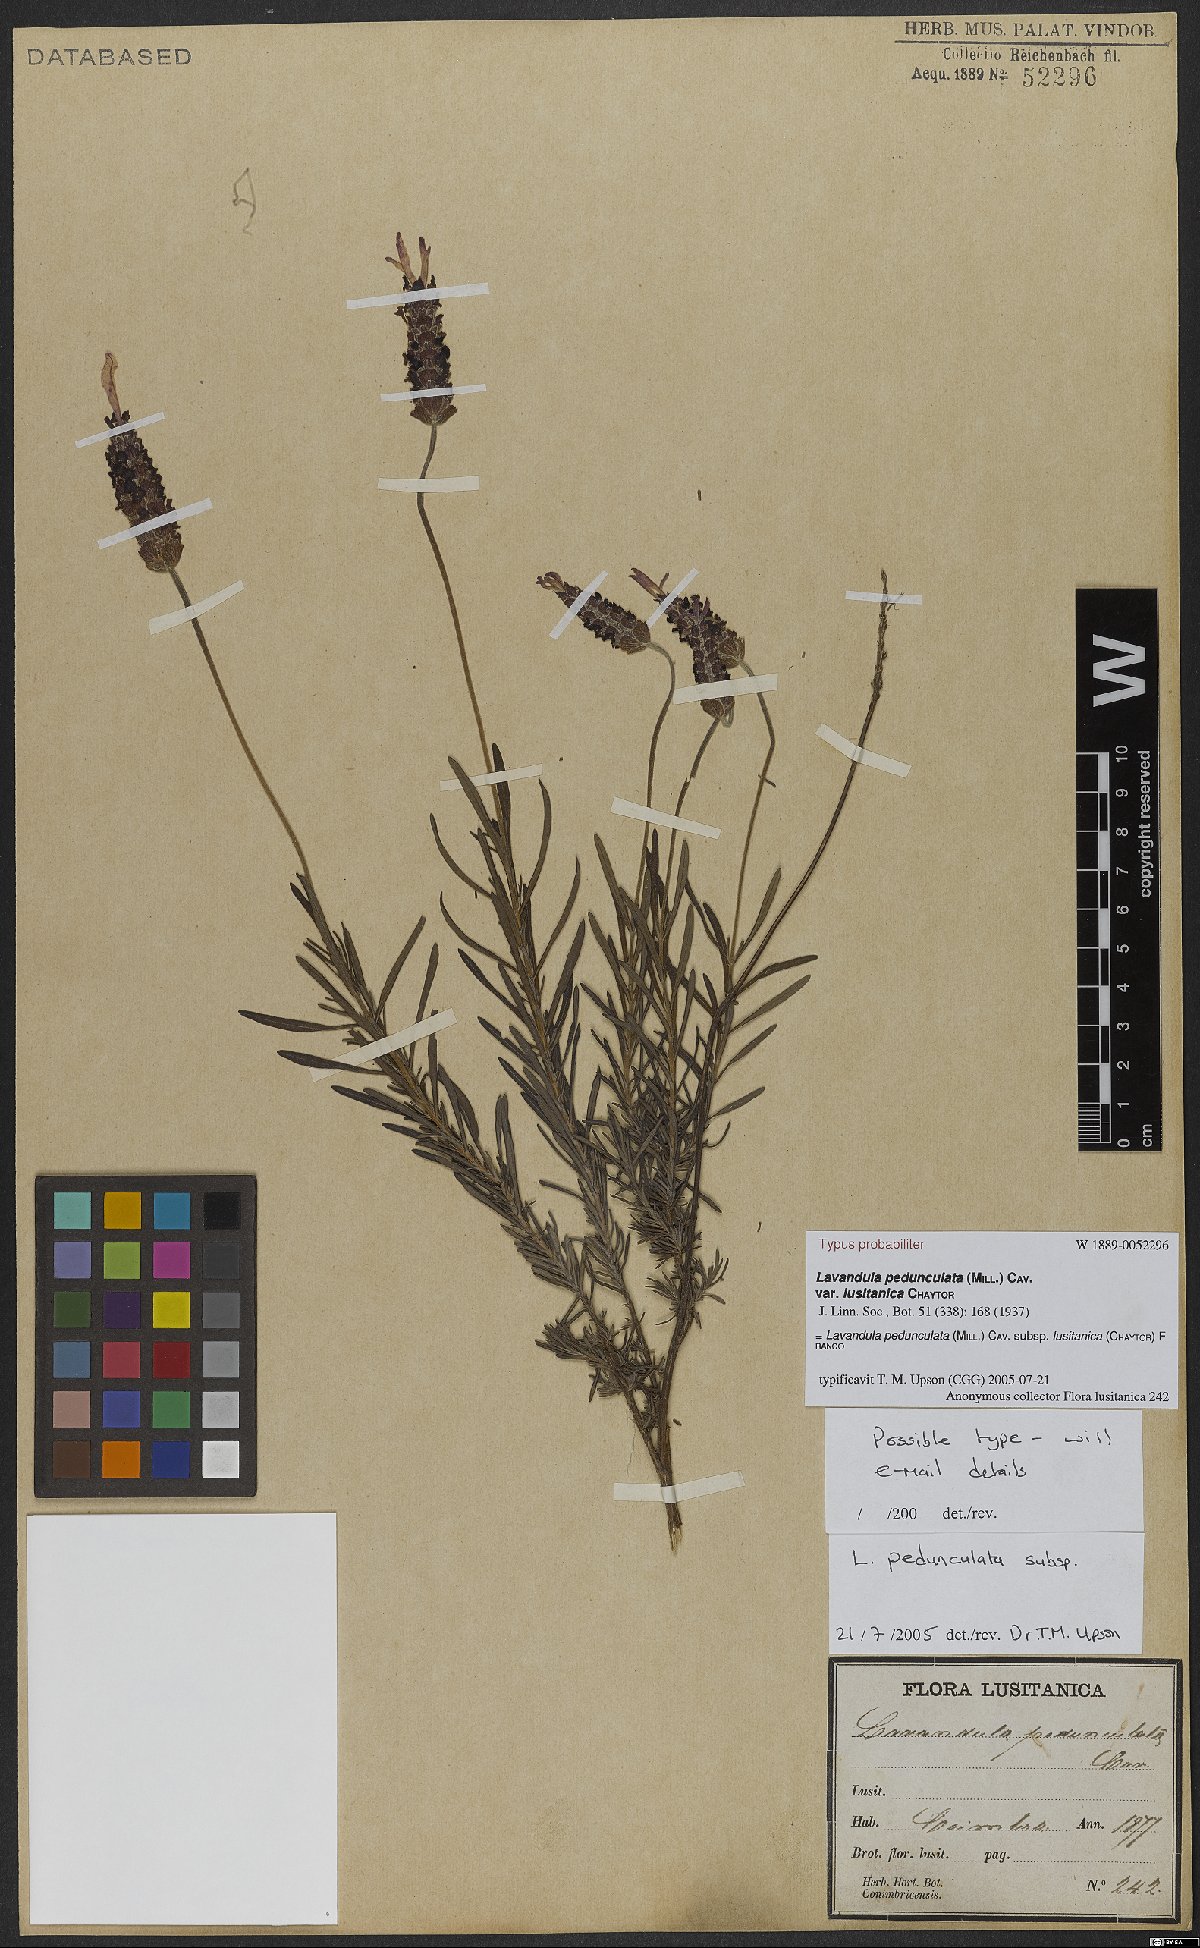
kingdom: Plantae
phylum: Tracheophyta
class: Magnoliopsida
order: Lamiales
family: Lamiaceae
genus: Lavandula
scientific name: Lavandula pedunculata
